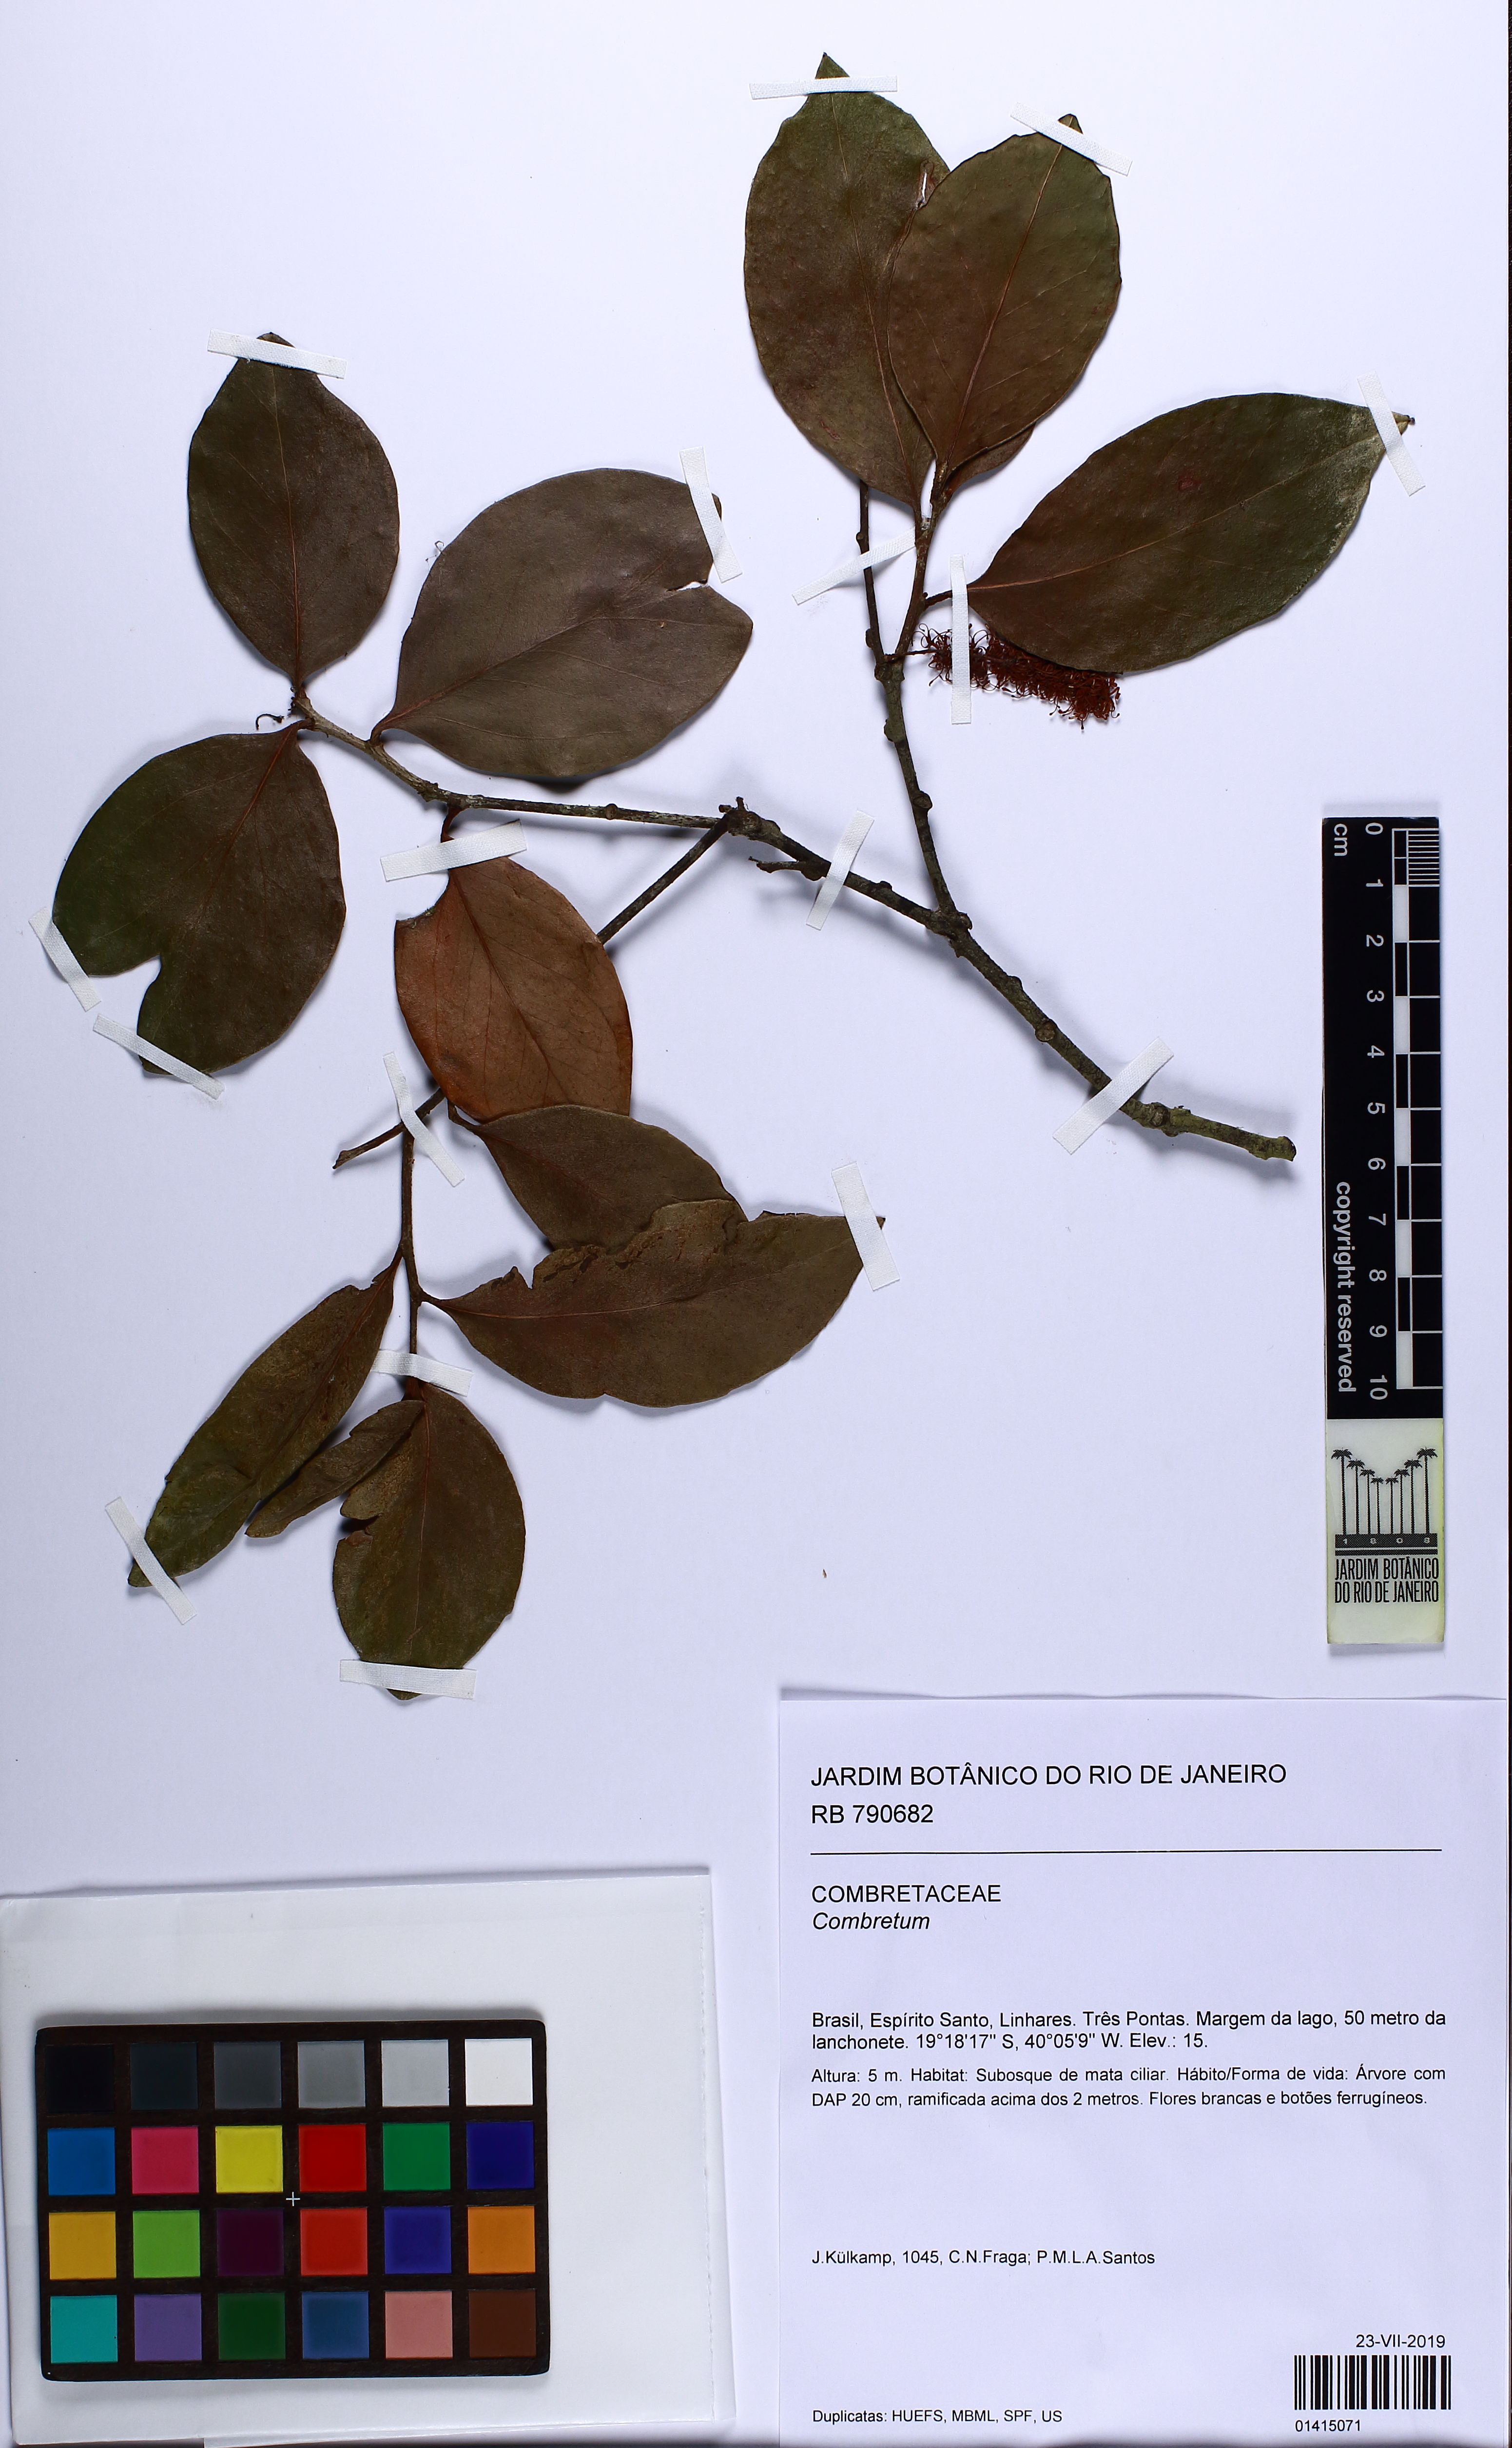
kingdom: Plantae
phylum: Tracheophyta
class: Magnoliopsida
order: Myrtales
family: Combretaceae
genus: Combretum
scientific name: Combretum
